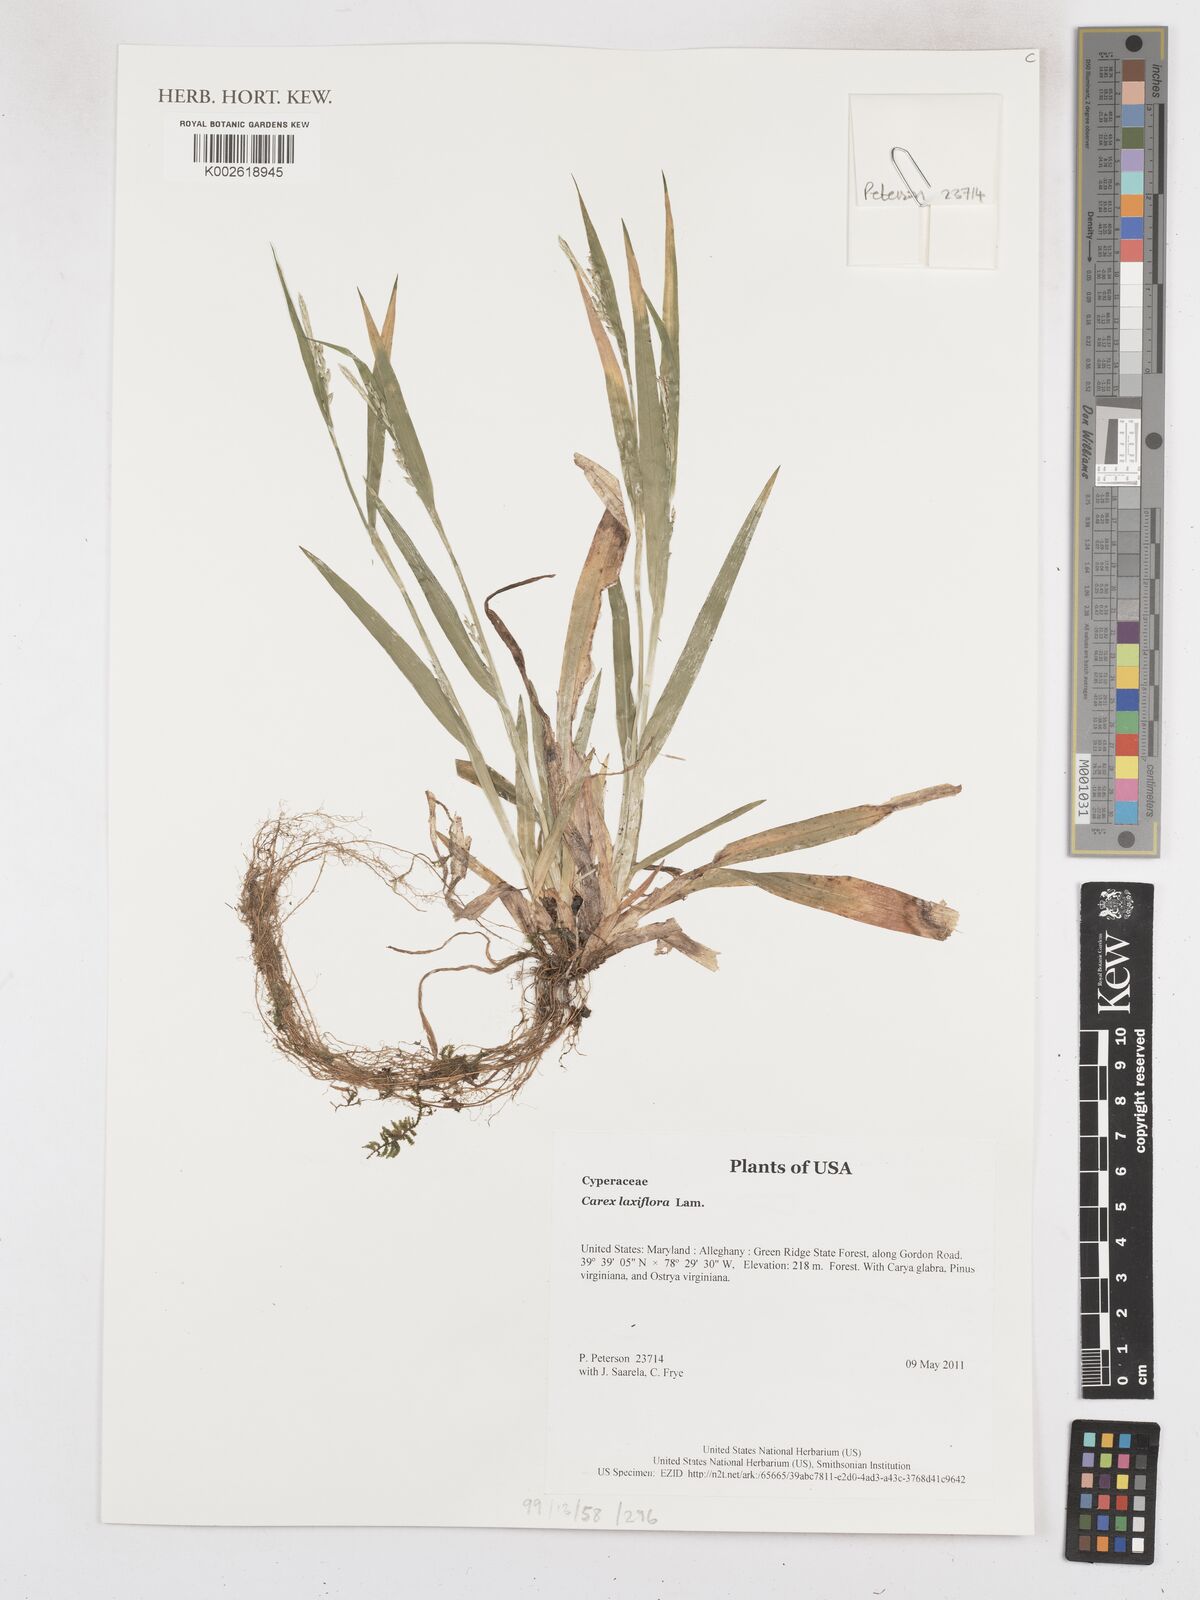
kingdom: Plantae
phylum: Tracheophyta
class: Liliopsida
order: Poales
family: Cyperaceae
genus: Carex
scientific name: Carex laxiflora
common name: Beech wood sedge
